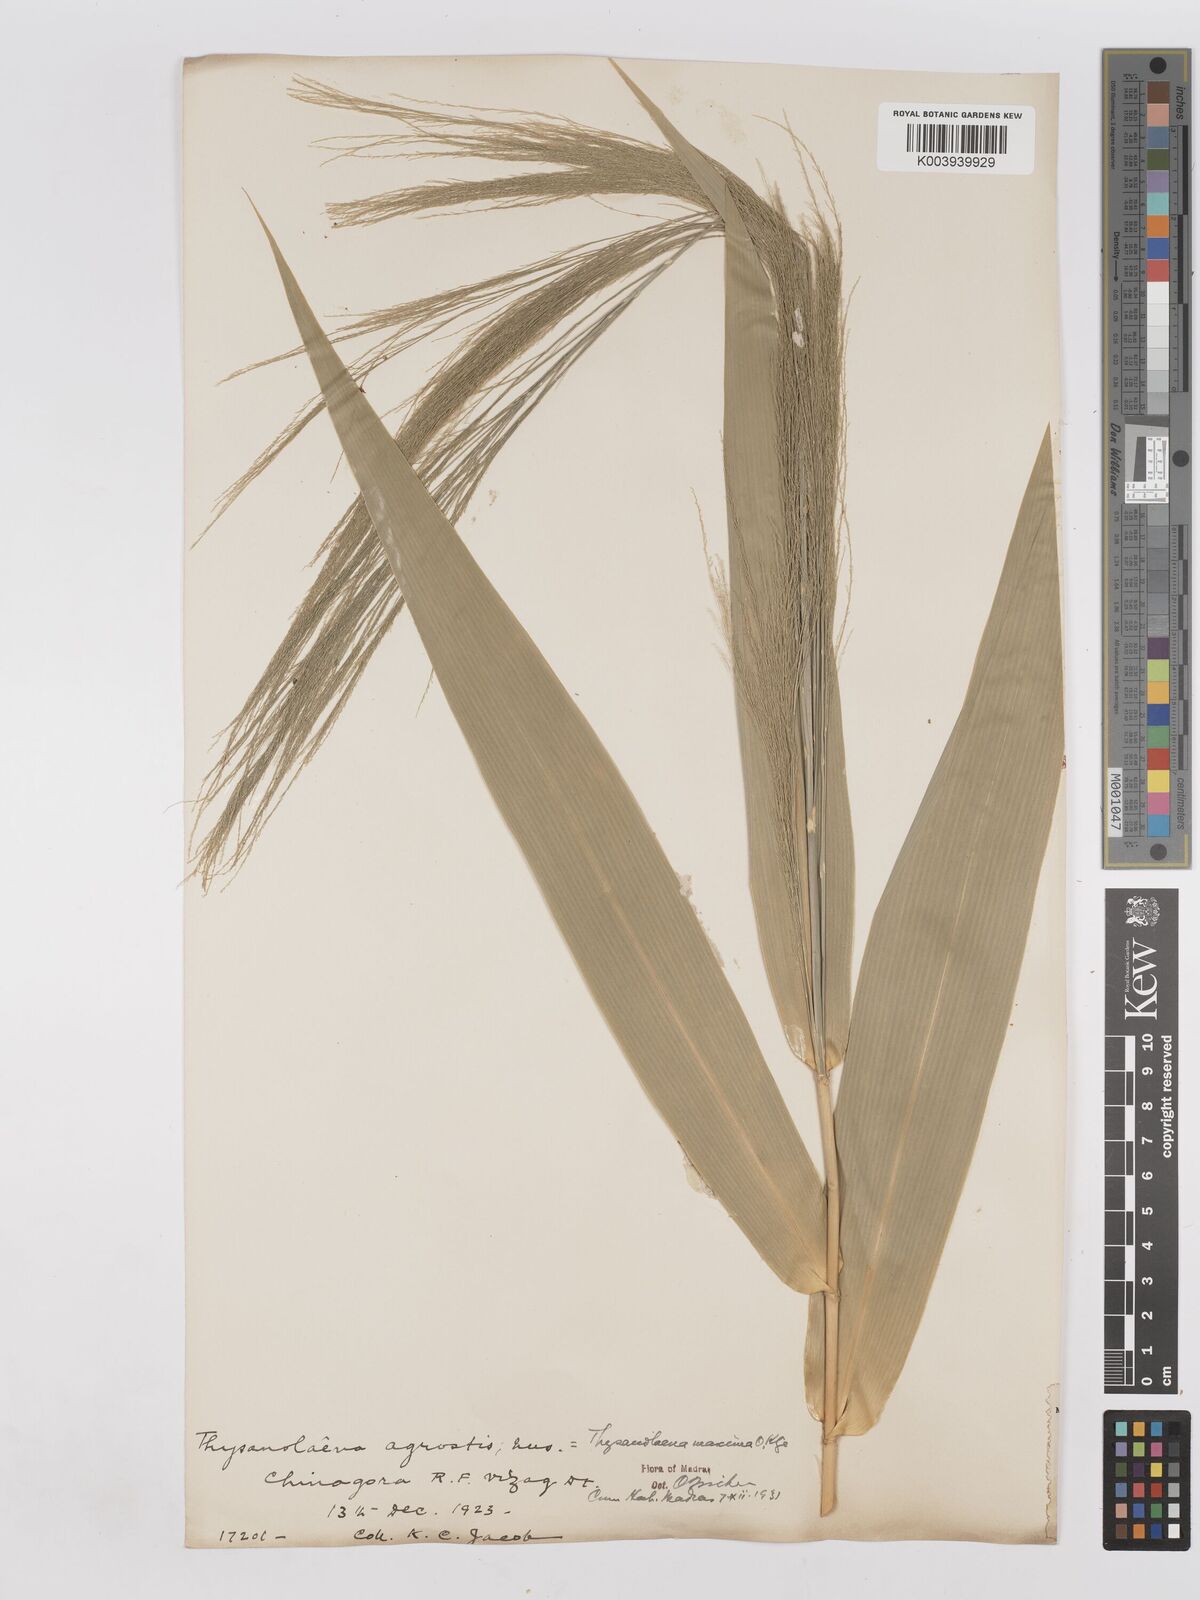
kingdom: Plantae
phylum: Tracheophyta
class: Liliopsida
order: Poales
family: Poaceae
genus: Thysanolaena
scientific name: Thysanolaena latifolia
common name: Tiger grass
